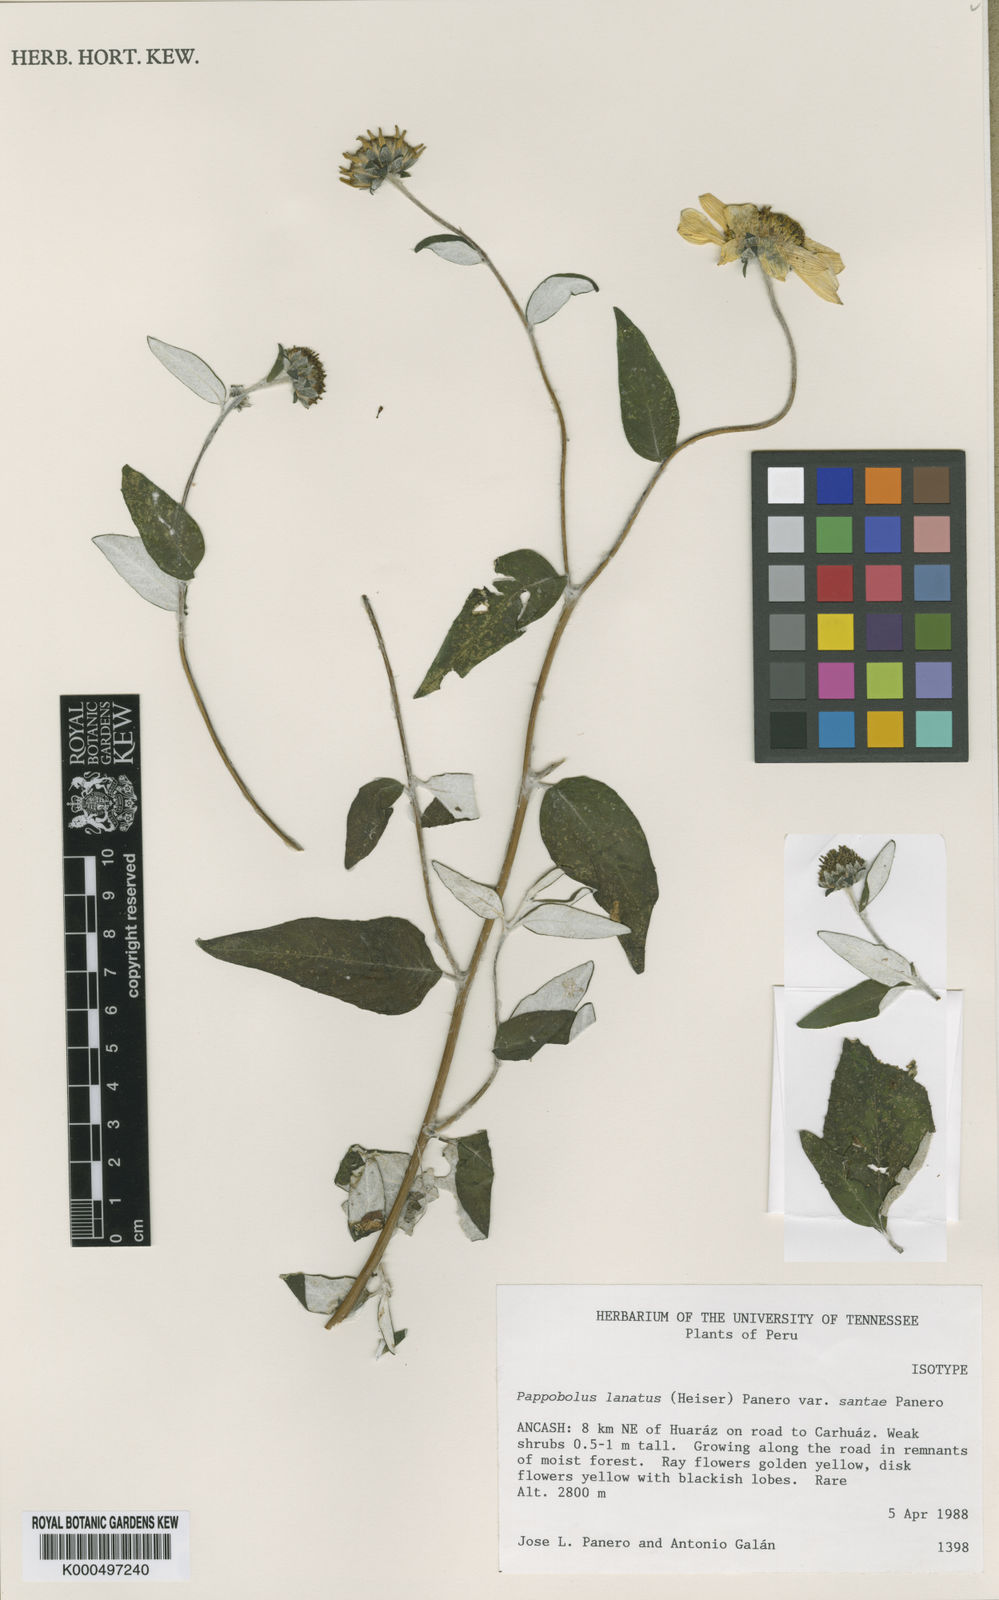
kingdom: Plantae
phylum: Tracheophyta
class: Magnoliopsida
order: Asterales
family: Asteraceae
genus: Pappobolus
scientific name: Pappobolus lanatus
